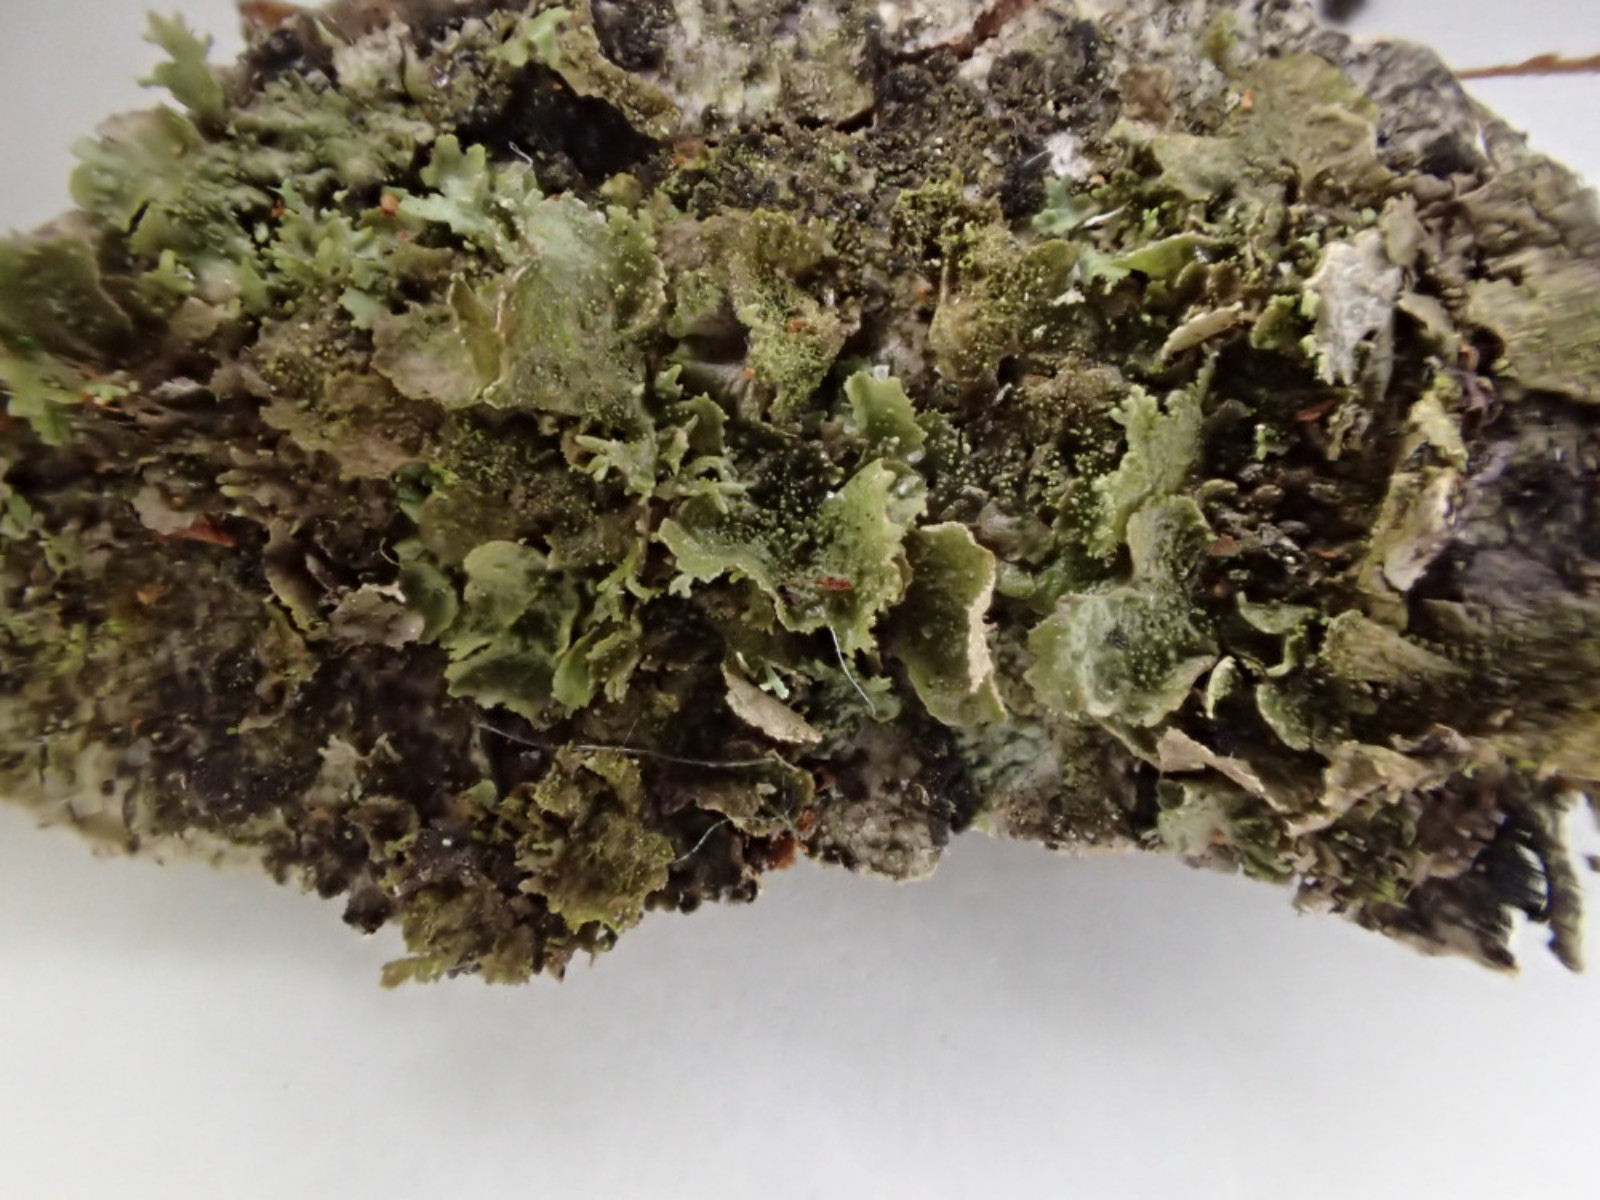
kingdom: Fungi
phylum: Ascomycota
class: Lecanoromycetes
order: Lecanorales
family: Parmeliaceae
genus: Melanohalea
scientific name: Melanohalea exasperatula
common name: kølle-skållav
